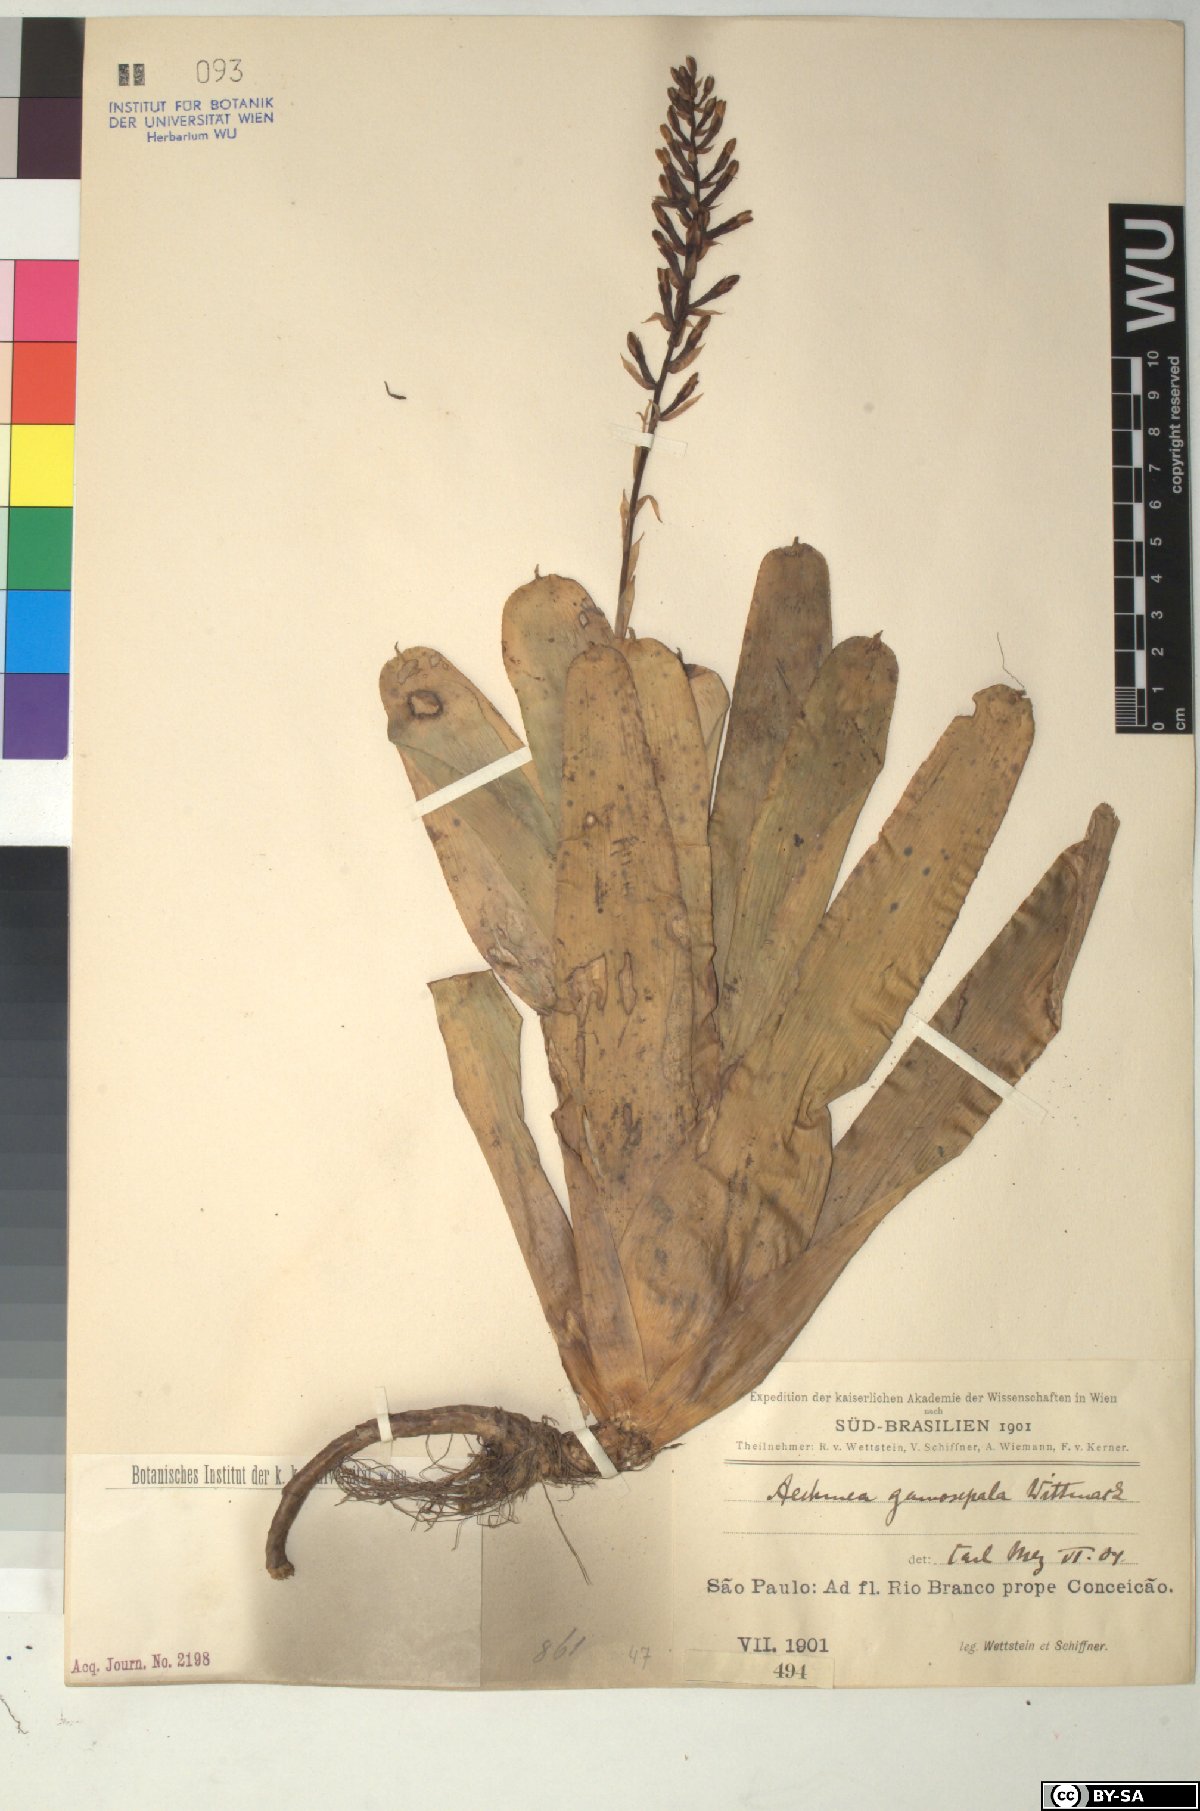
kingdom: Plantae
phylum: Tracheophyta
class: Liliopsida
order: Poales
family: Bromeliaceae
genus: Aechmea
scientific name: Aechmea
